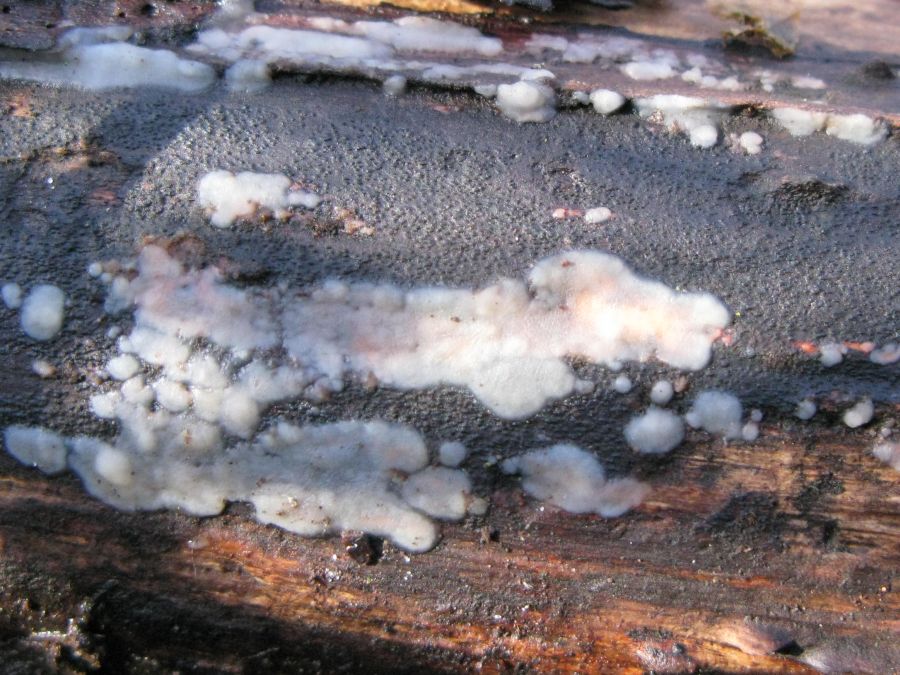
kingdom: Fungi
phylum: Basidiomycota
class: Agaricomycetes
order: Auriculariales
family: Hyaloriaceae
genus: Myxarium
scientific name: Myxarium nucleatum
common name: klar bævretop
